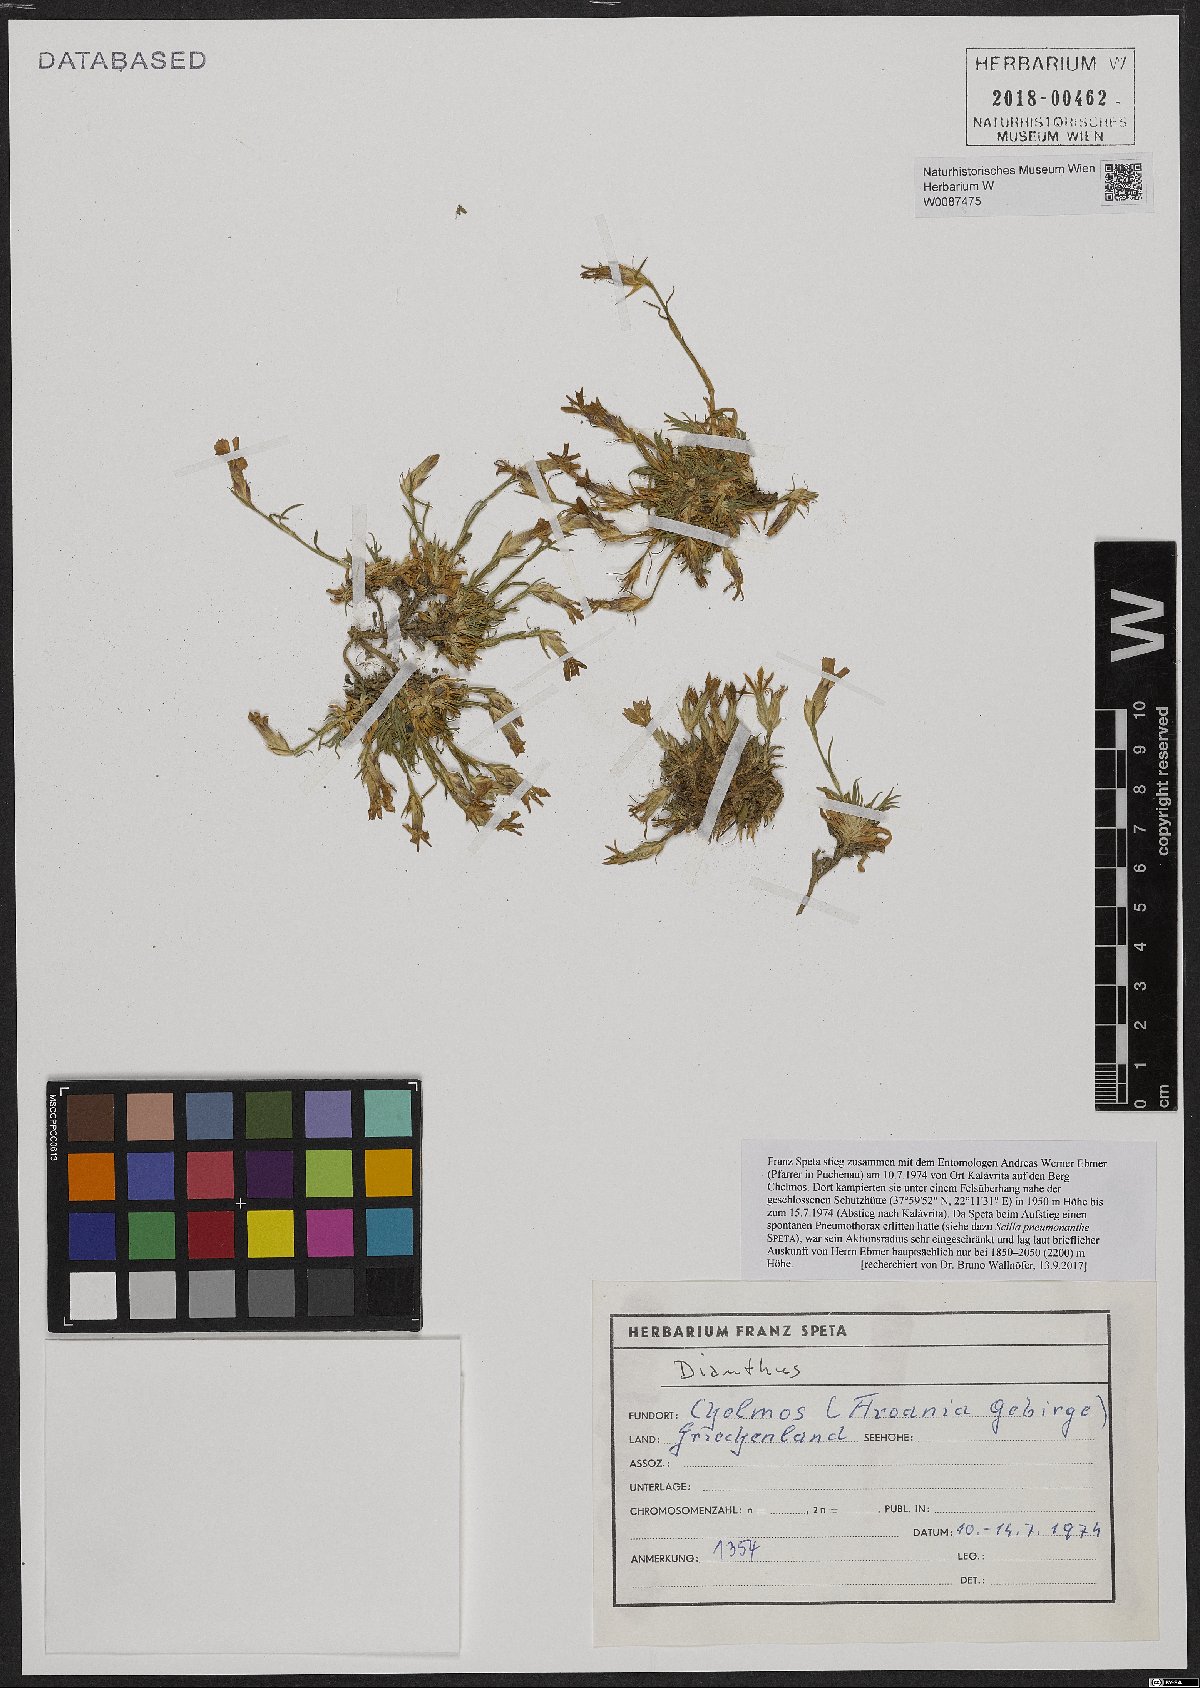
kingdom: Plantae
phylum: Tracheophyta
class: Magnoliopsida
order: Caryophyllales
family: Caryophyllaceae
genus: Dianthus
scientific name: Dianthus
